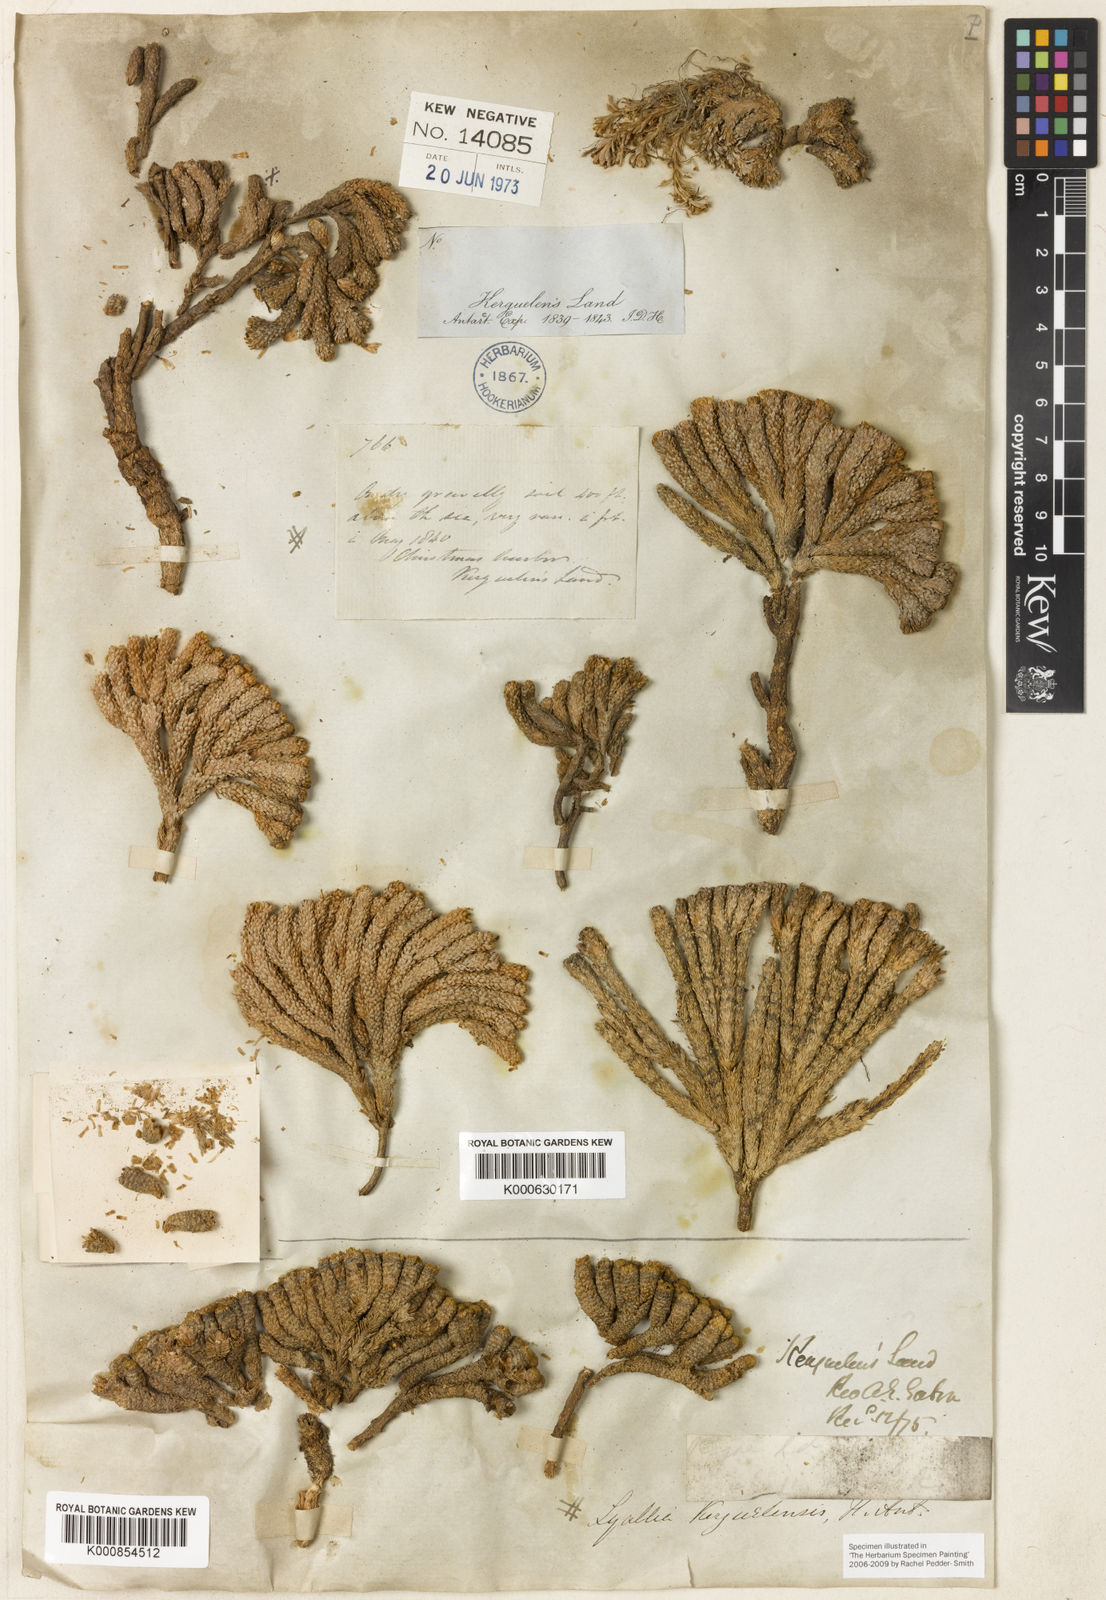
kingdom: Plantae
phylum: Tracheophyta
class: Magnoliopsida
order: Caryophyllales
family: Montiaceae
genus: Lyallia
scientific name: Lyallia kerguelensis
